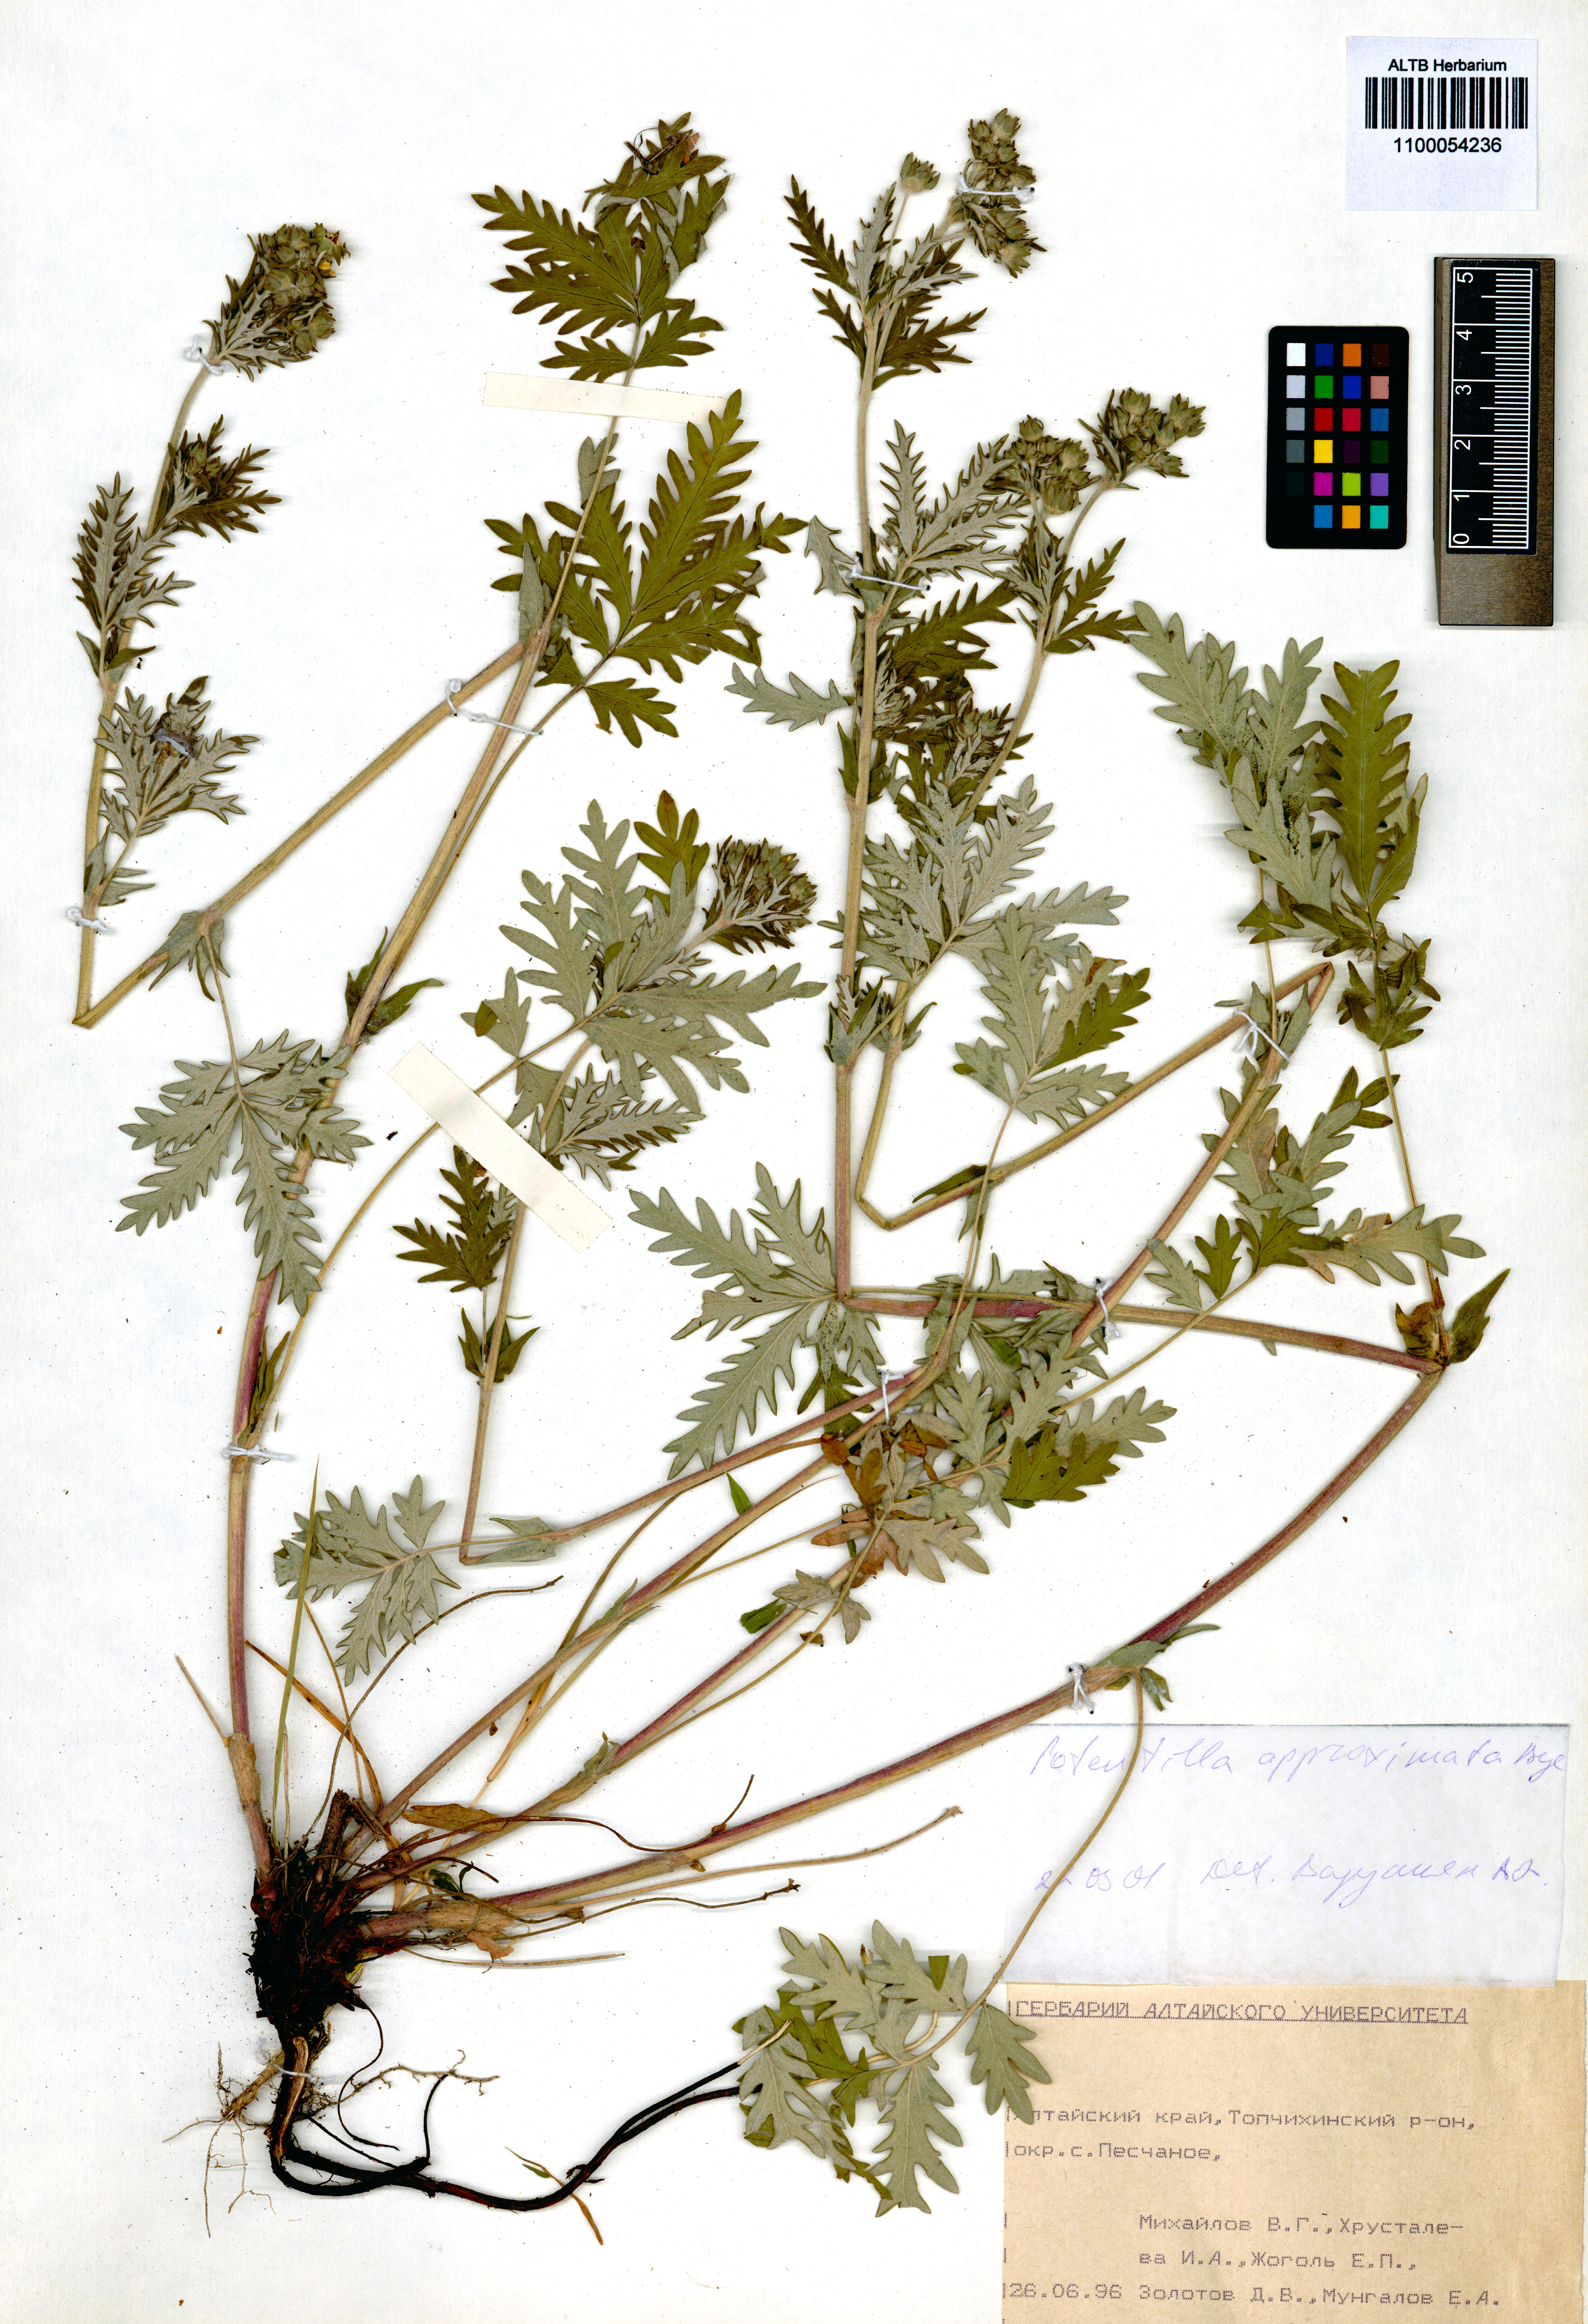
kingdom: Plantae
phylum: Tracheophyta
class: Magnoliopsida
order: Rosales
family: Rosaceae
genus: Potentilla
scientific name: Potentilla conferta
